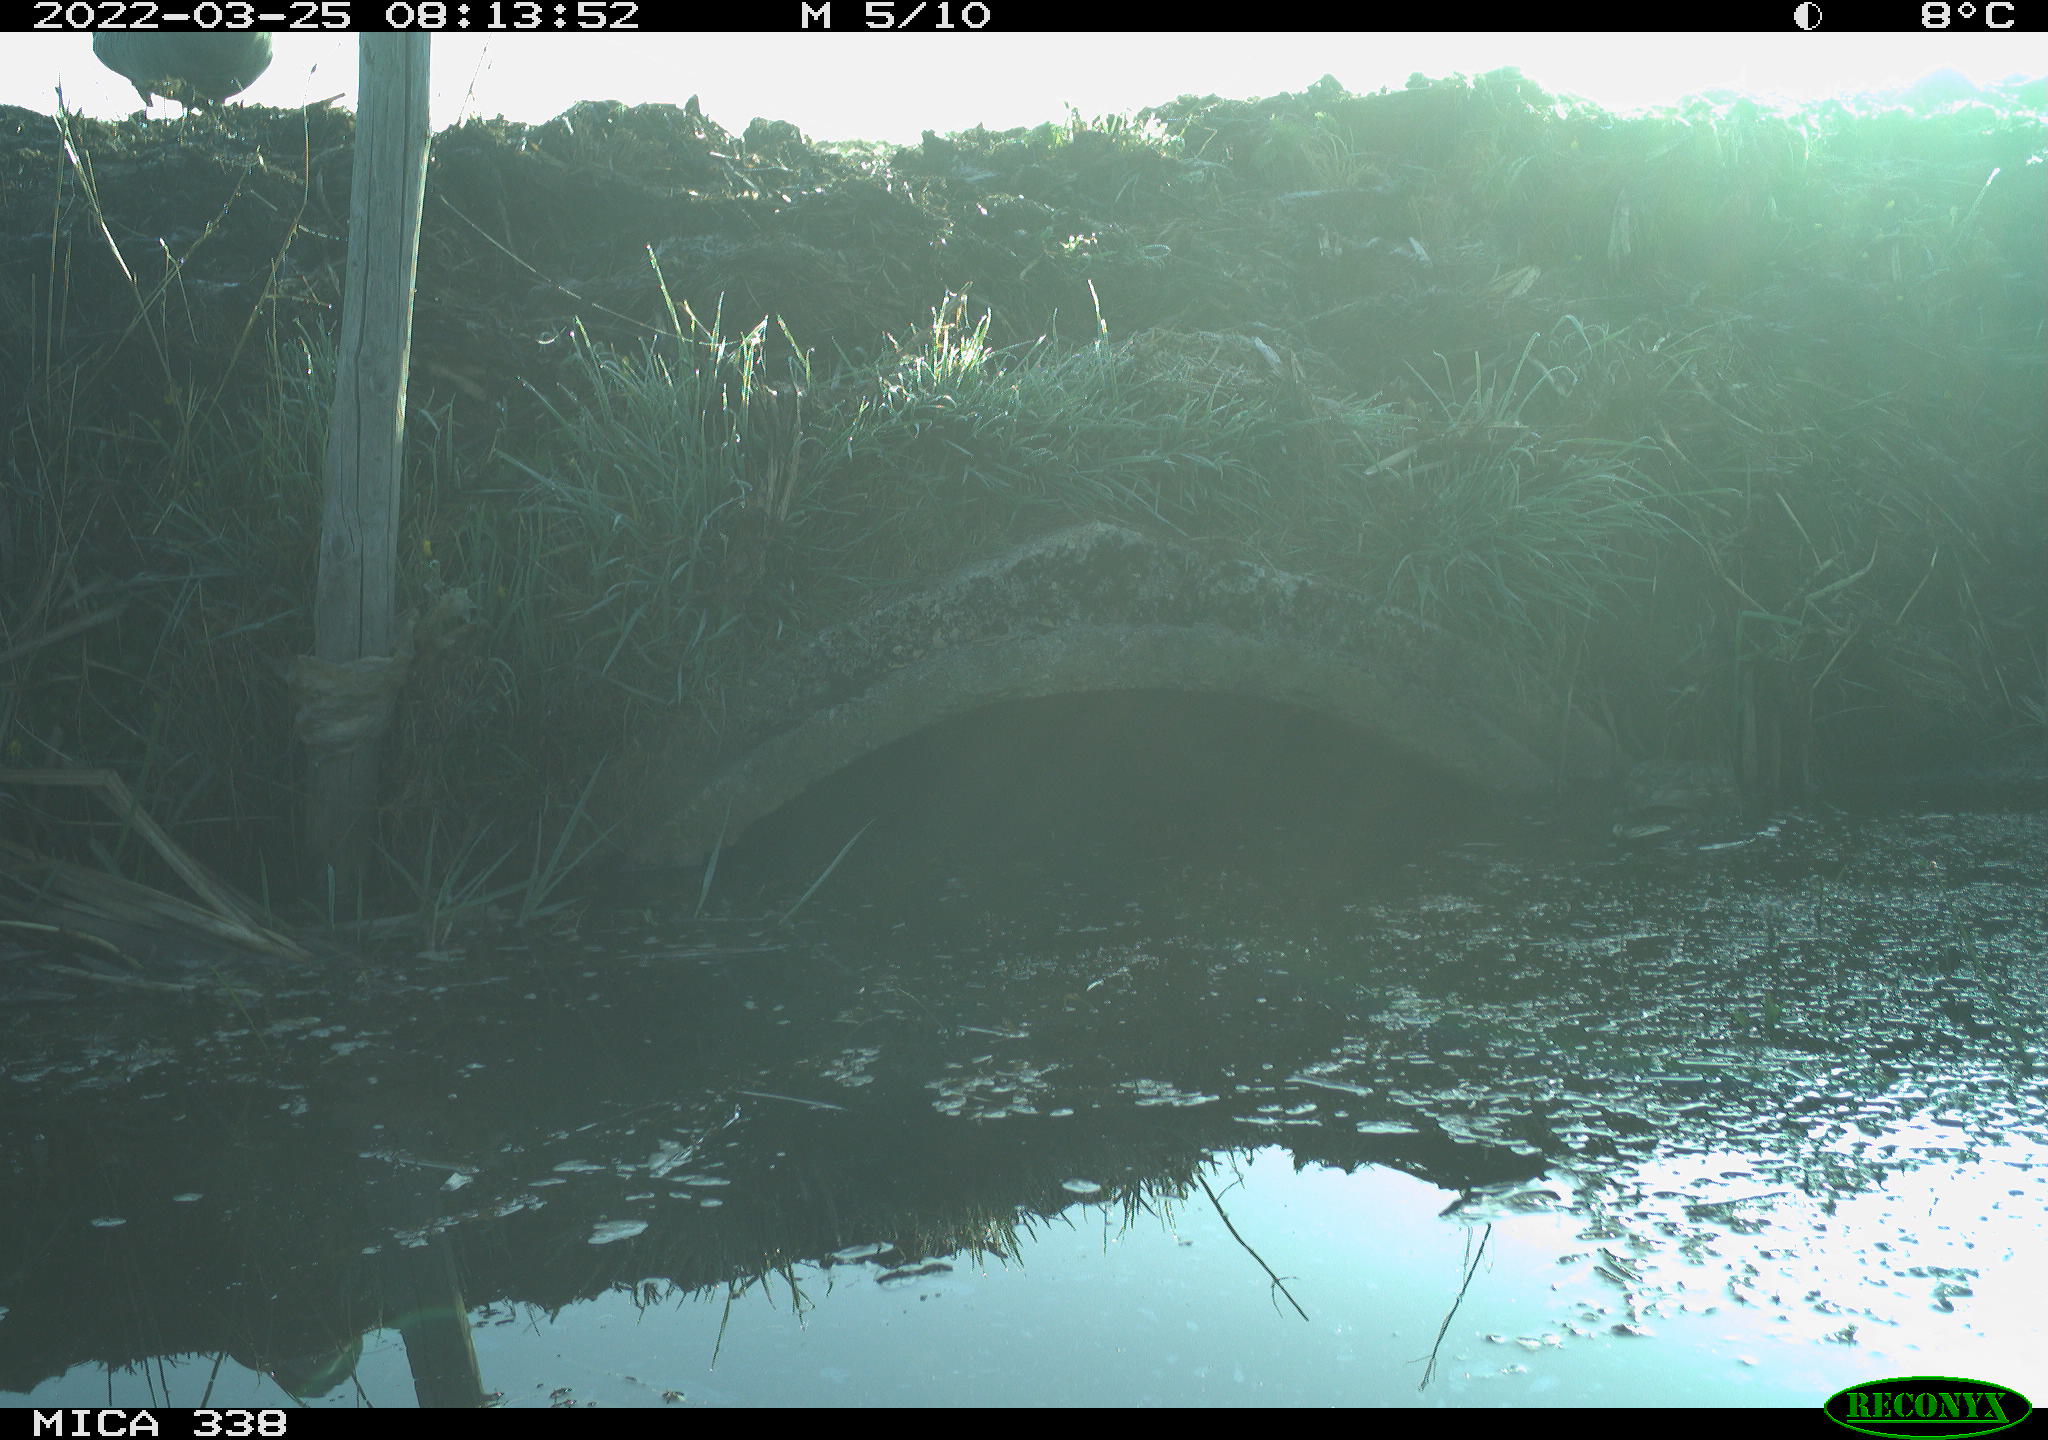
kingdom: Animalia
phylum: Chordata
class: Aves
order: Anseriformes
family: Anatidae
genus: Anas
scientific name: Anas platyrhynchos
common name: Mallard
